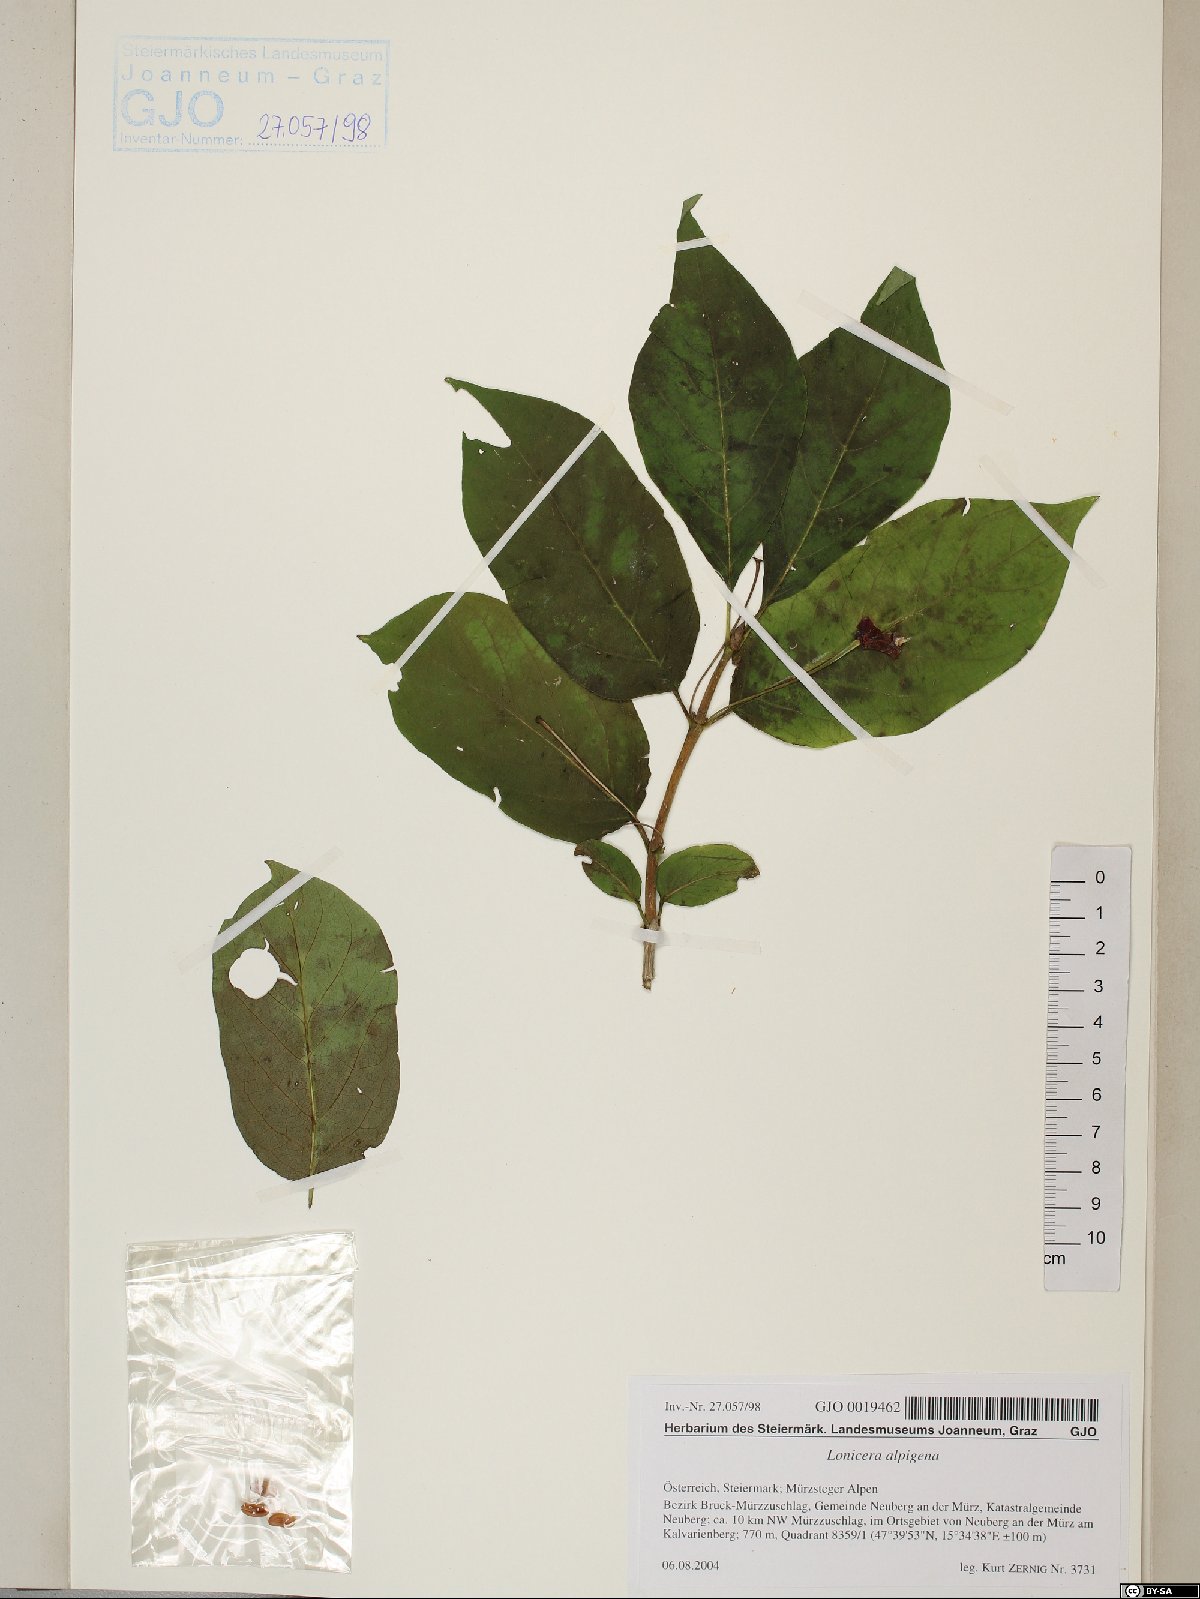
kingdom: Plantae
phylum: Tracheophyta
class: Magnoliopsida
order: Dipsacales
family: Caprifoliaceae
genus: Lonicera
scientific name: Lonicera alpigena
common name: Alpine honeysuckle
